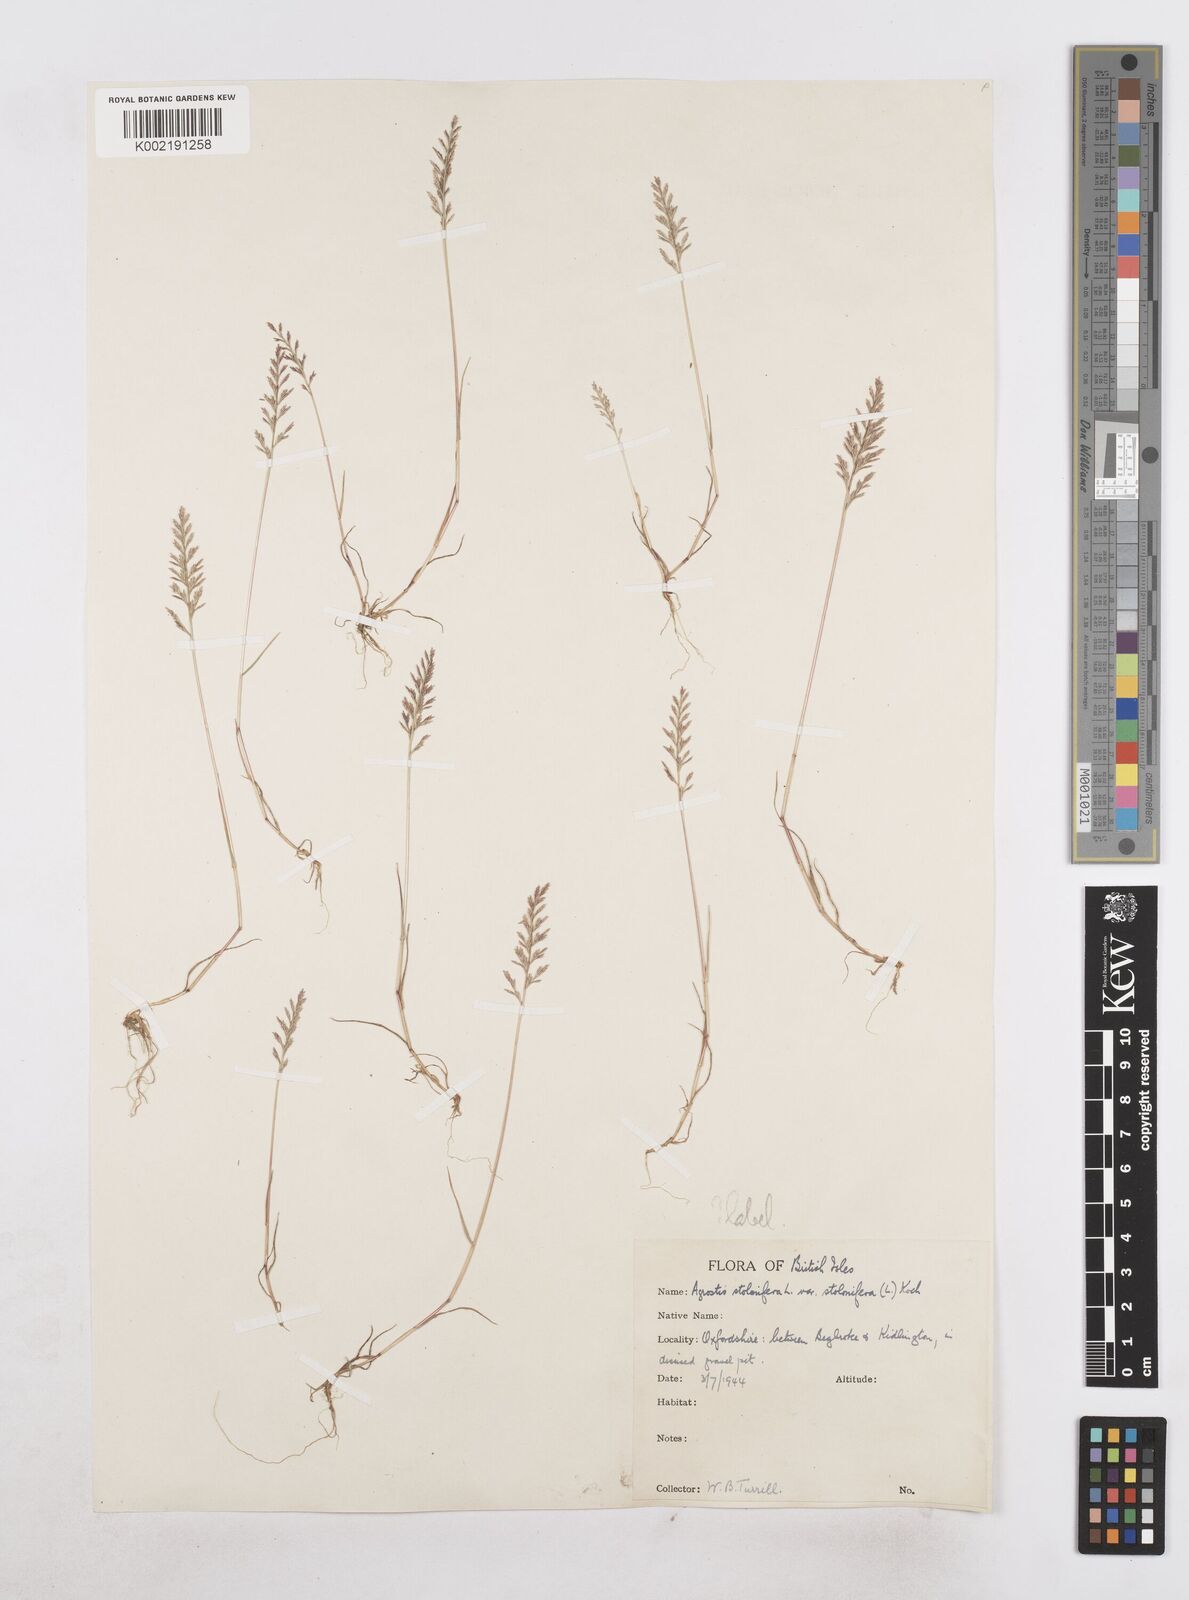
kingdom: Plantae
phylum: Tracheophyta
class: Liliopsida
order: Poales
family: Poaceae
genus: Catapodium
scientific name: Catapodium rigidum
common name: Fern-grass
